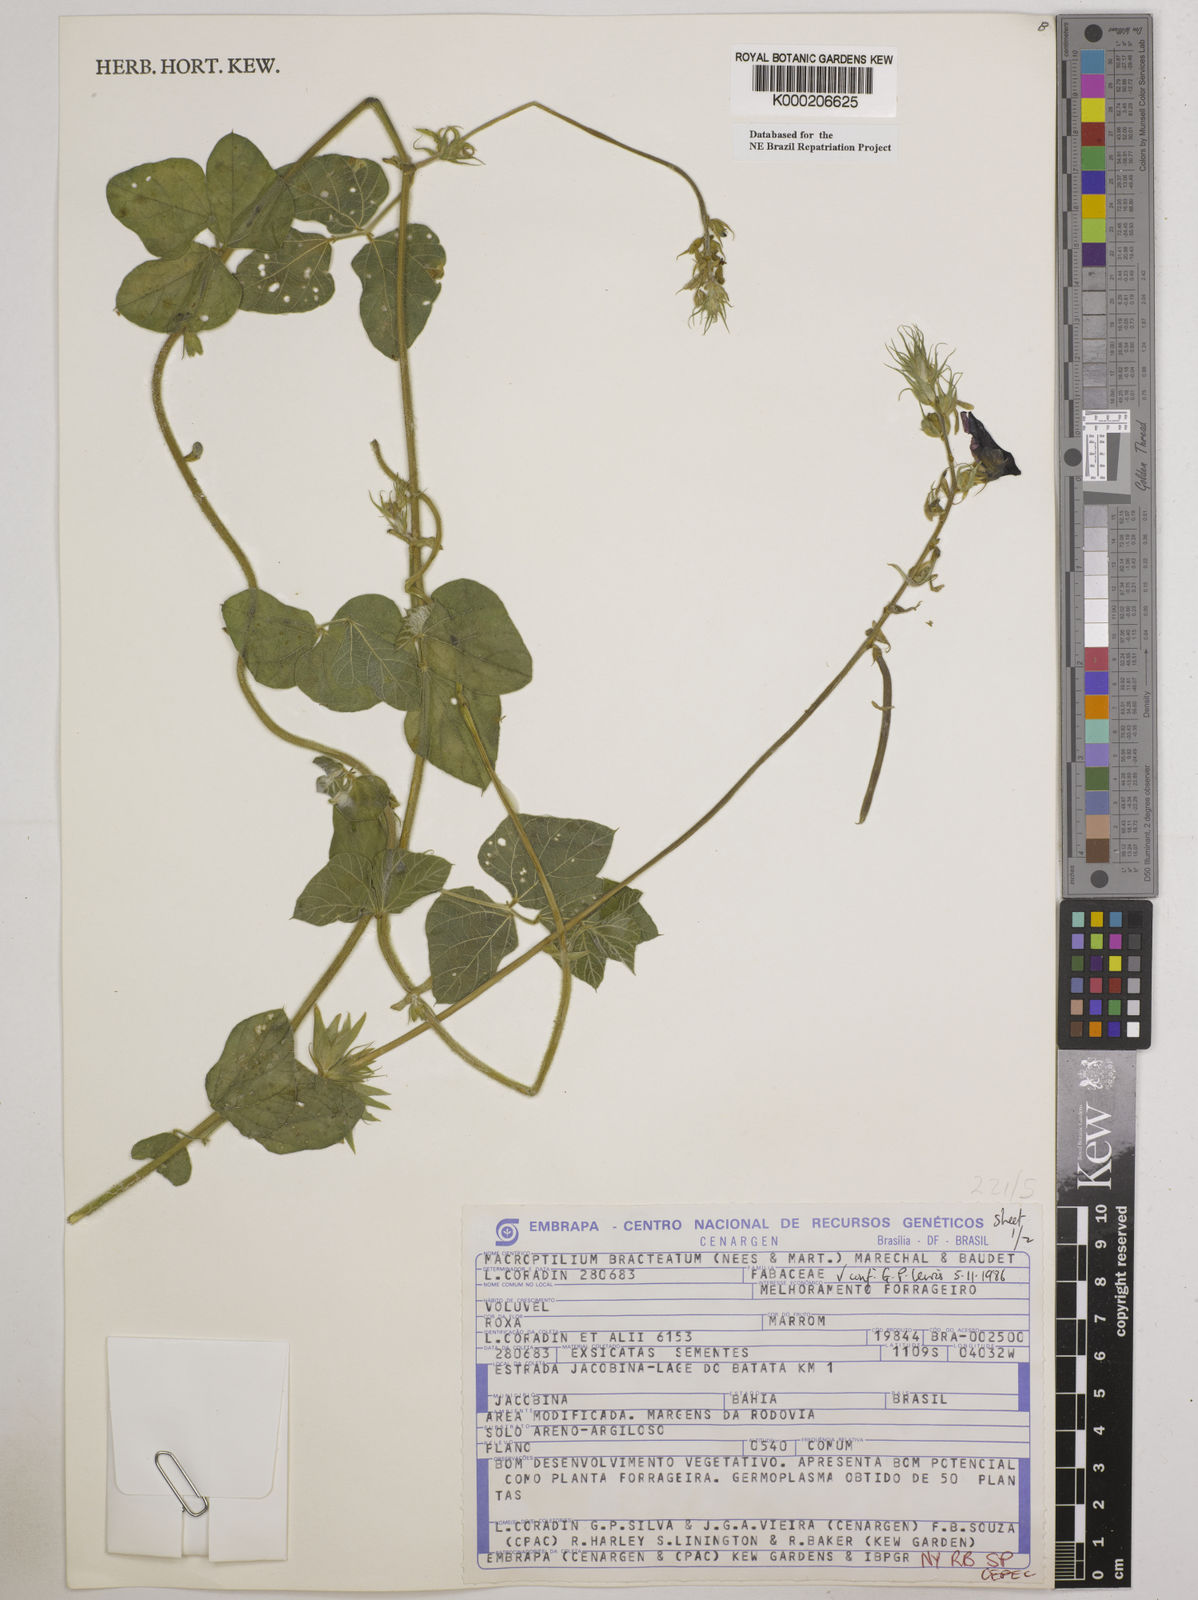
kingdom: Plantae
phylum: Tracheophyta
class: Magnoliopsida
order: Fabales
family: Fabaceae
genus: Macroptilium
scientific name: Macroptilium
